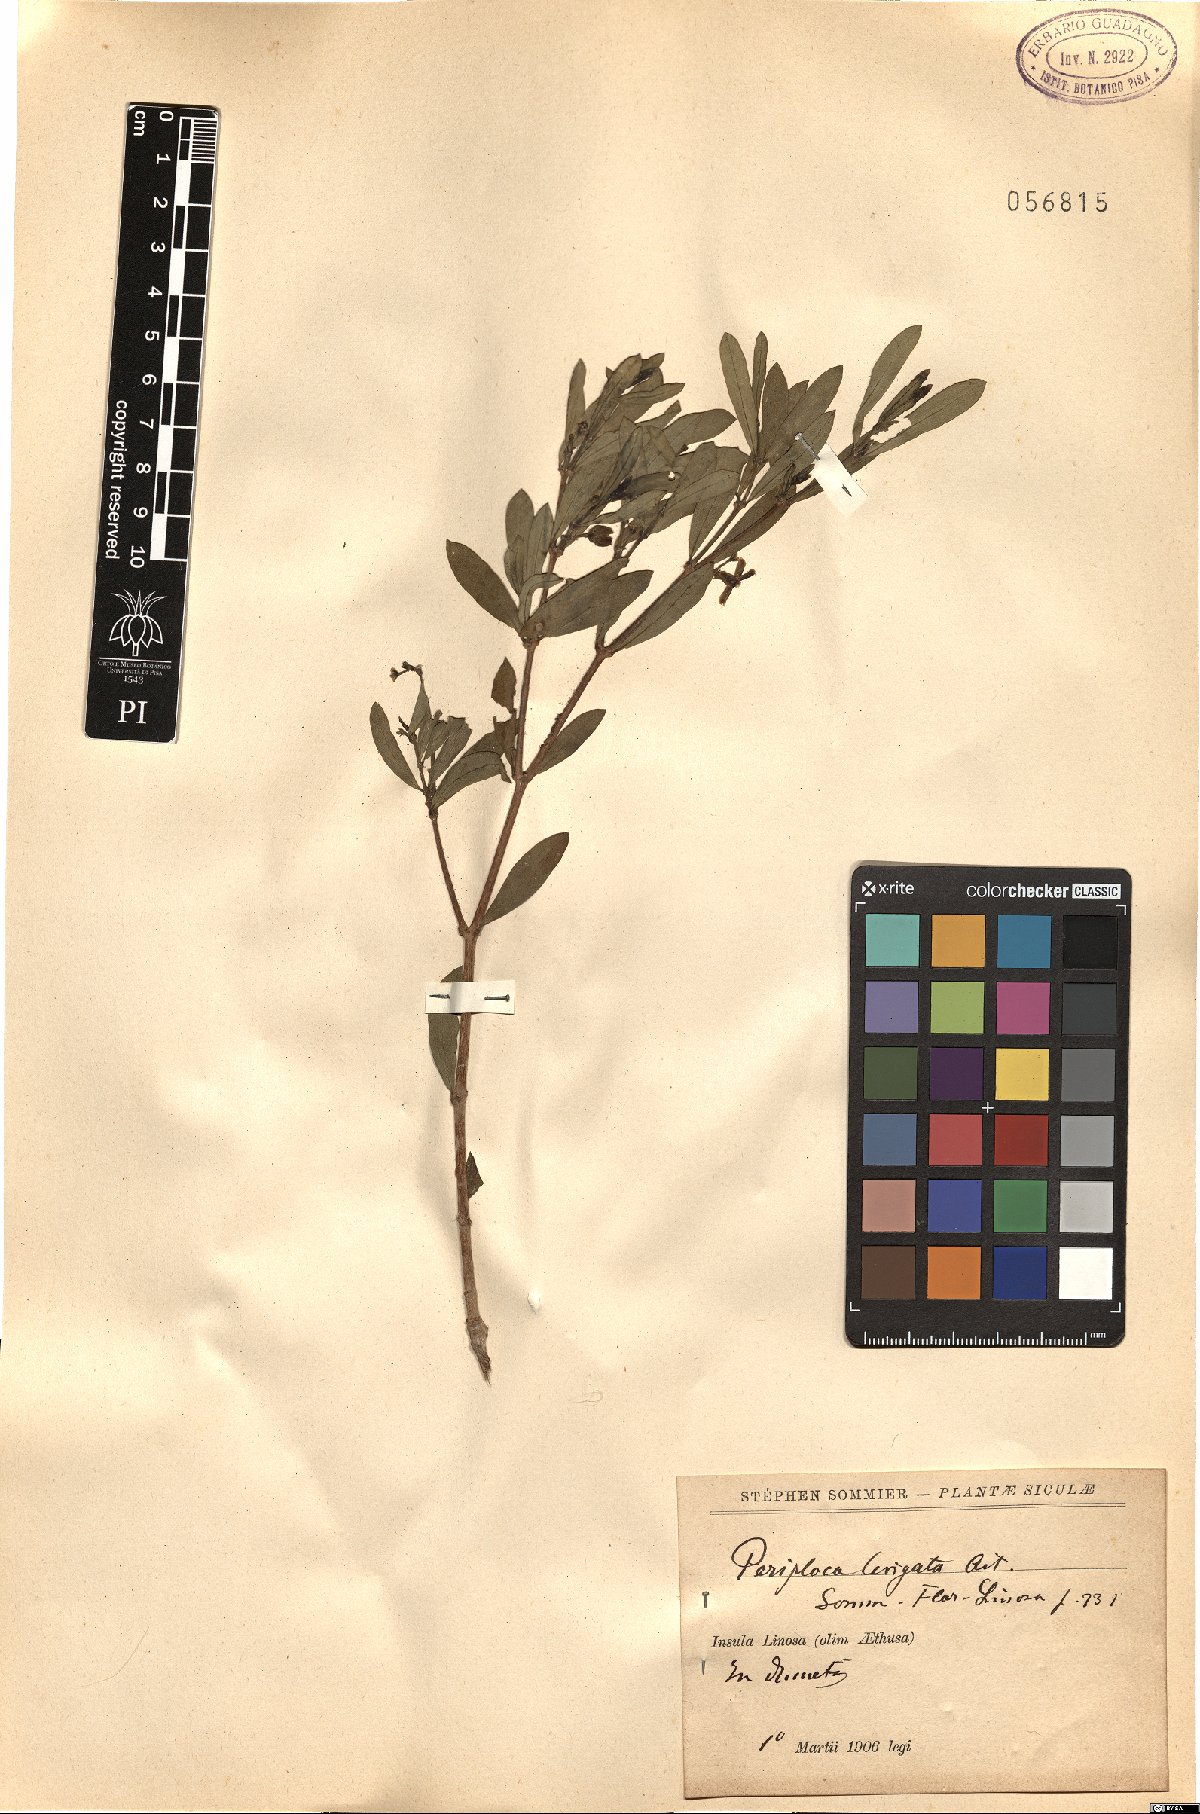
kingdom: Plantae
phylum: Tracheophyta
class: Magnoliopsida
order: Gentianales
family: Apocynaceae
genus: Periploca
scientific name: Periploca laevigata
